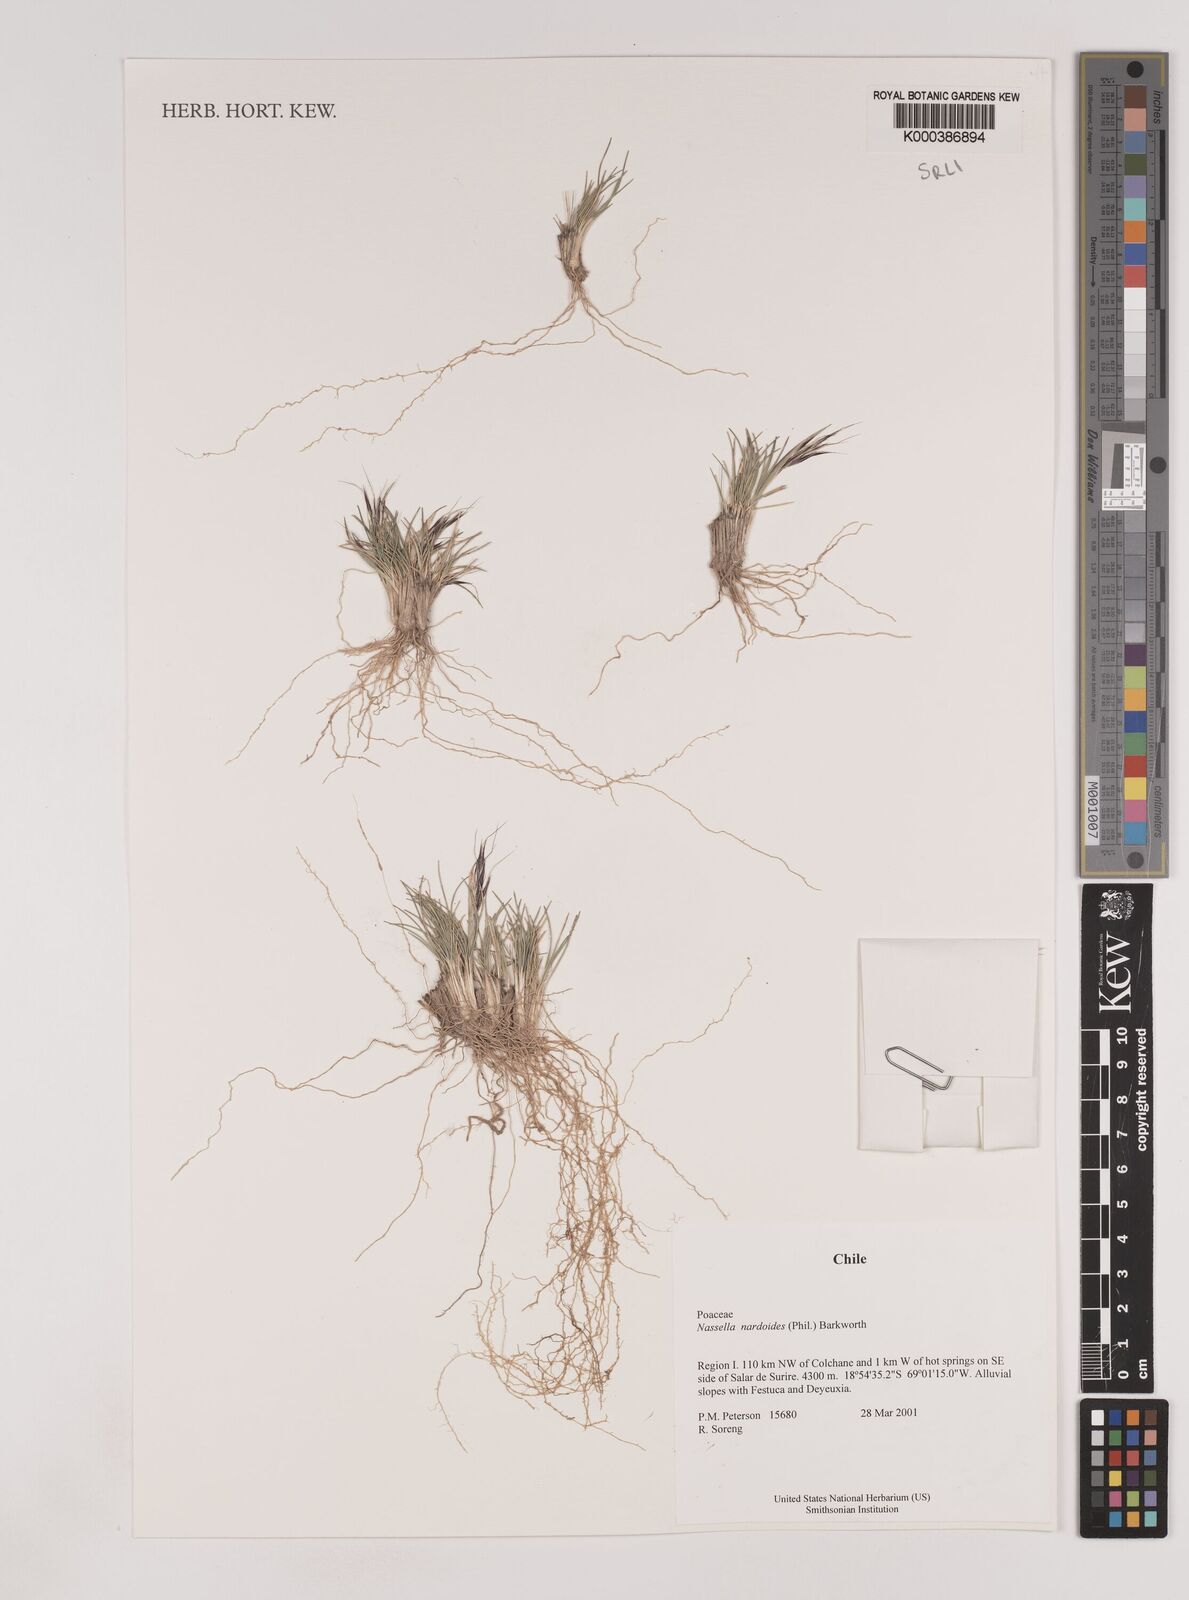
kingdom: Plantae
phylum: Tracheophyta
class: Liliopsida
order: Poales
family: Poaceae
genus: Nassella
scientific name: Nassella nardoides
